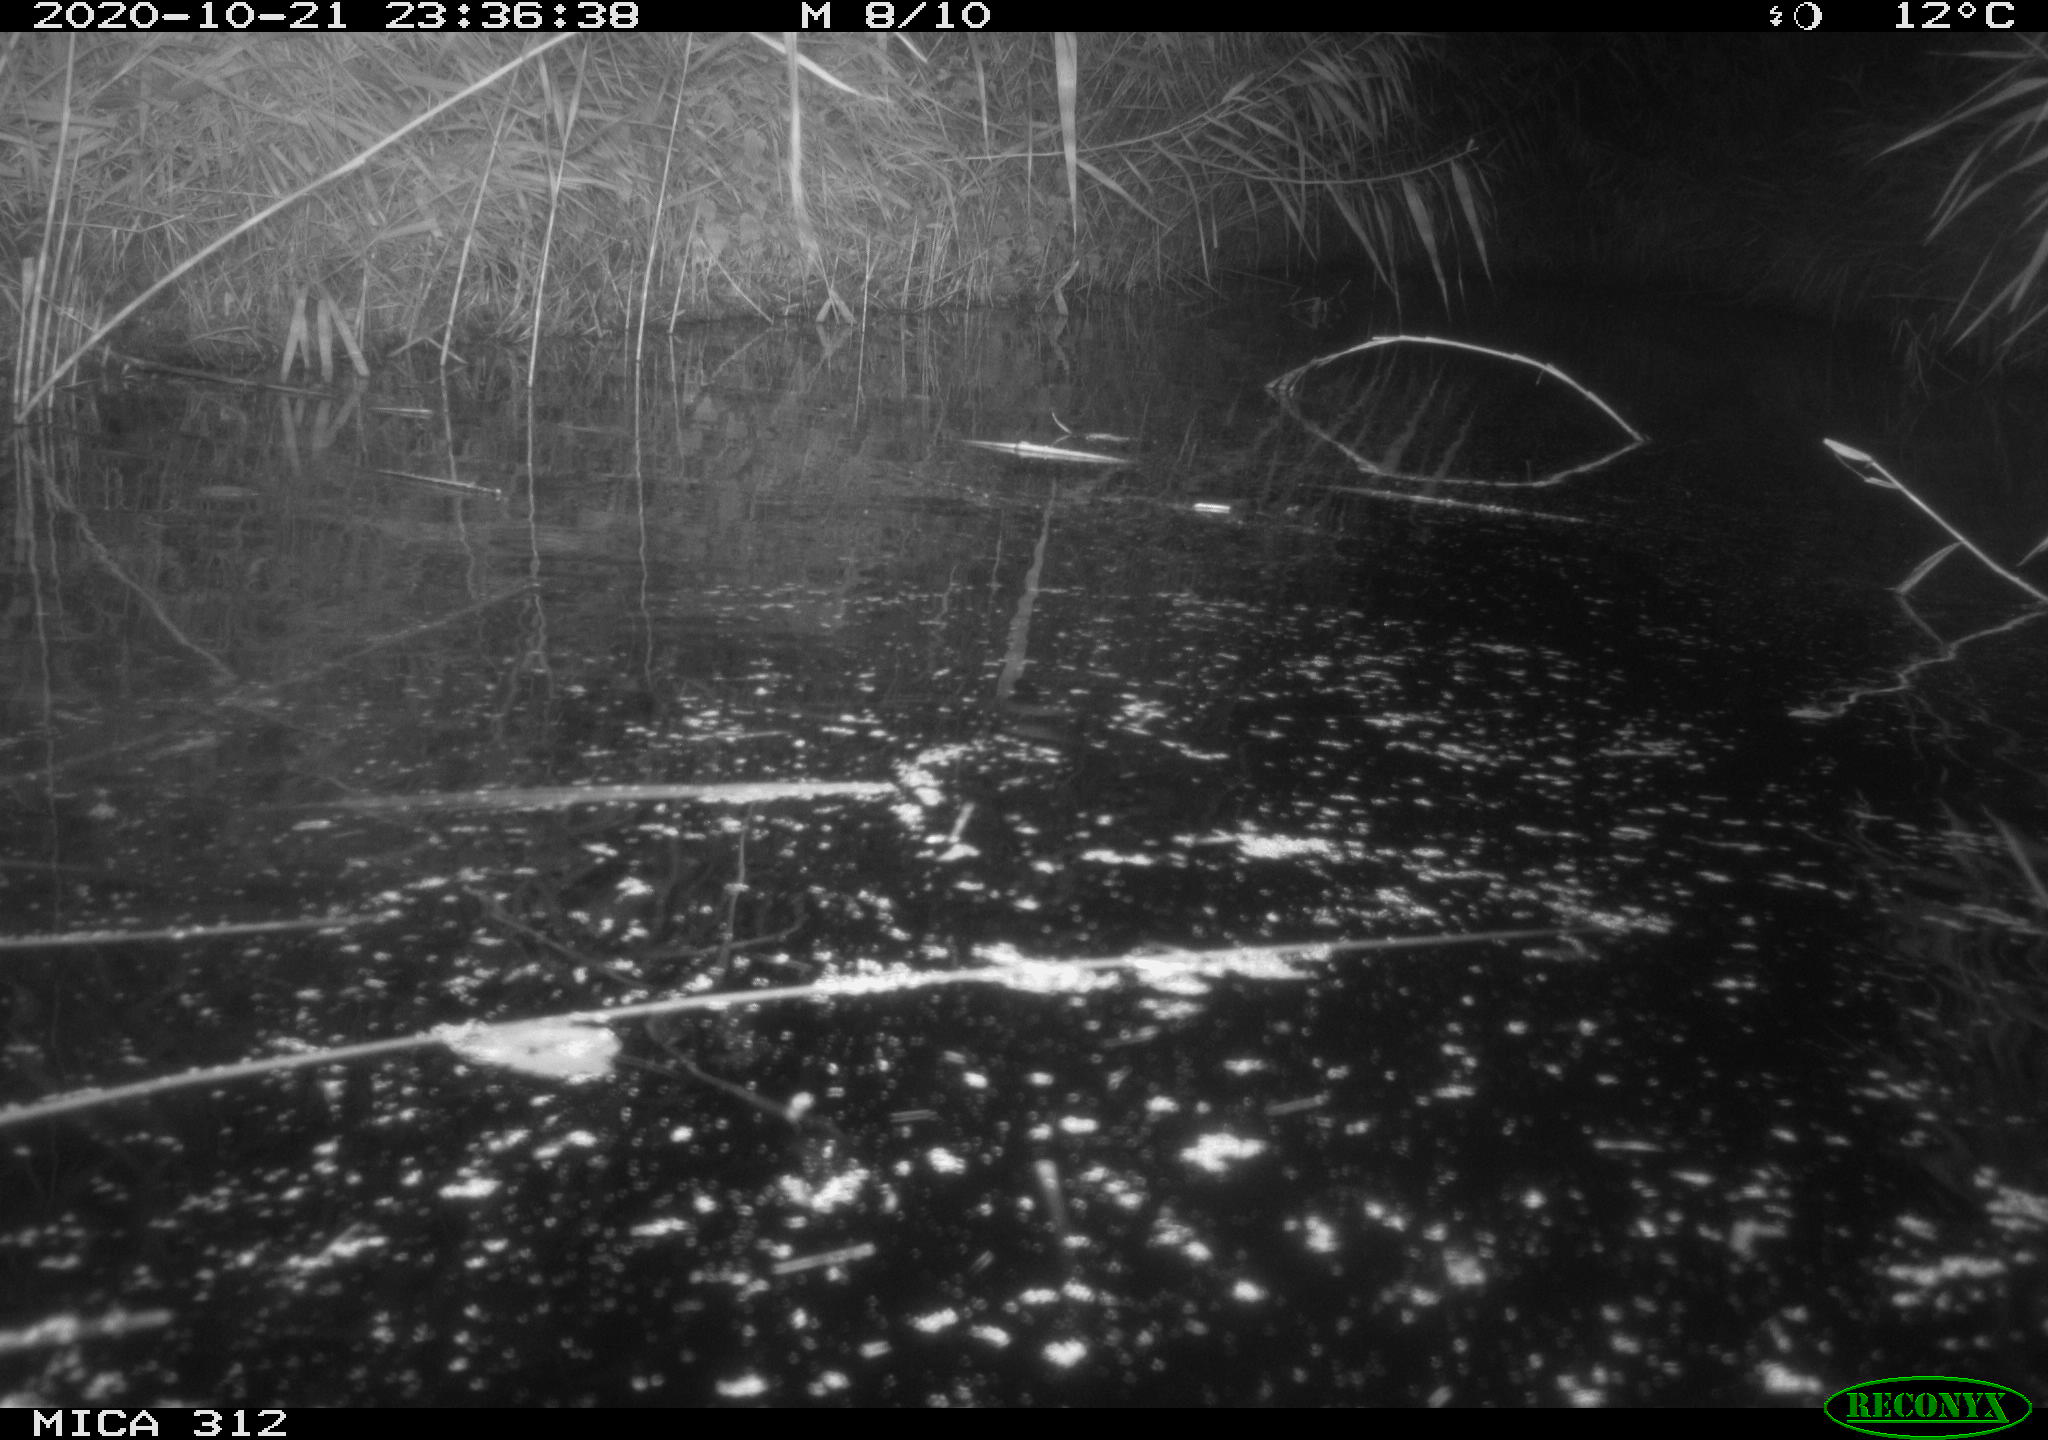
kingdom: Animalia
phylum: Chordata
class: Mammalia
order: Rodentia
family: Muridae
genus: Rattus
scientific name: Rattus norvegicus
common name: Brown rat
